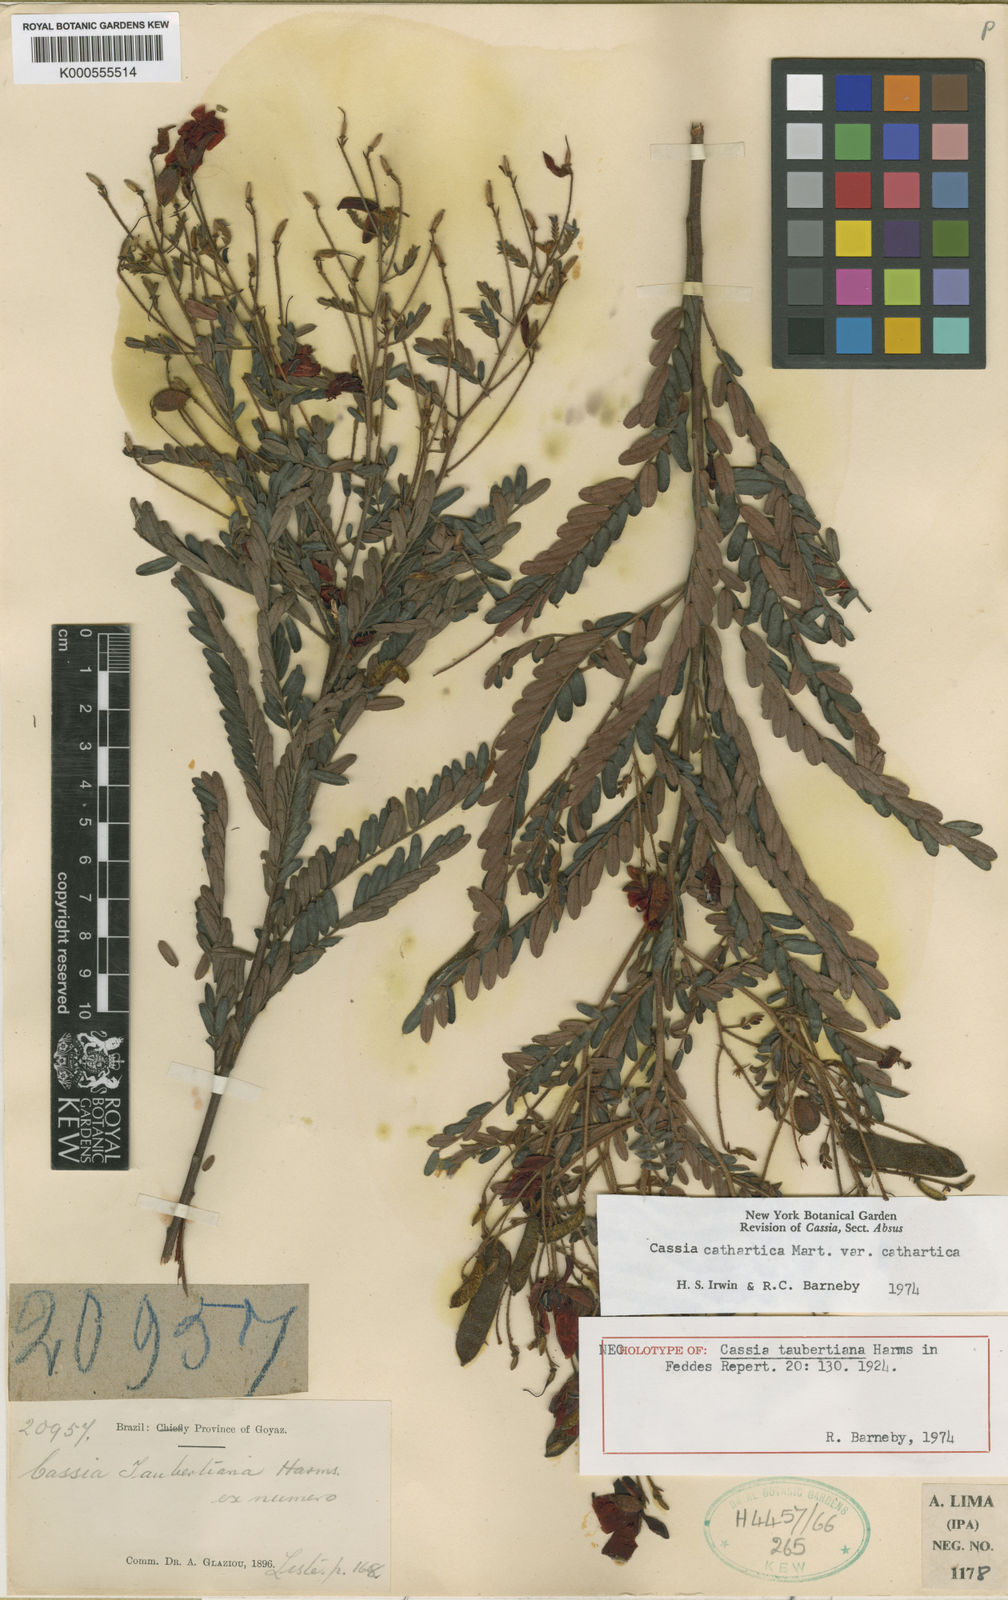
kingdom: Plantae
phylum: Tracheophyta
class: Magnoliopsida
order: Fabales
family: Fabaceae
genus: Chamaecrista
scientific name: Chamaecrista cathartica
